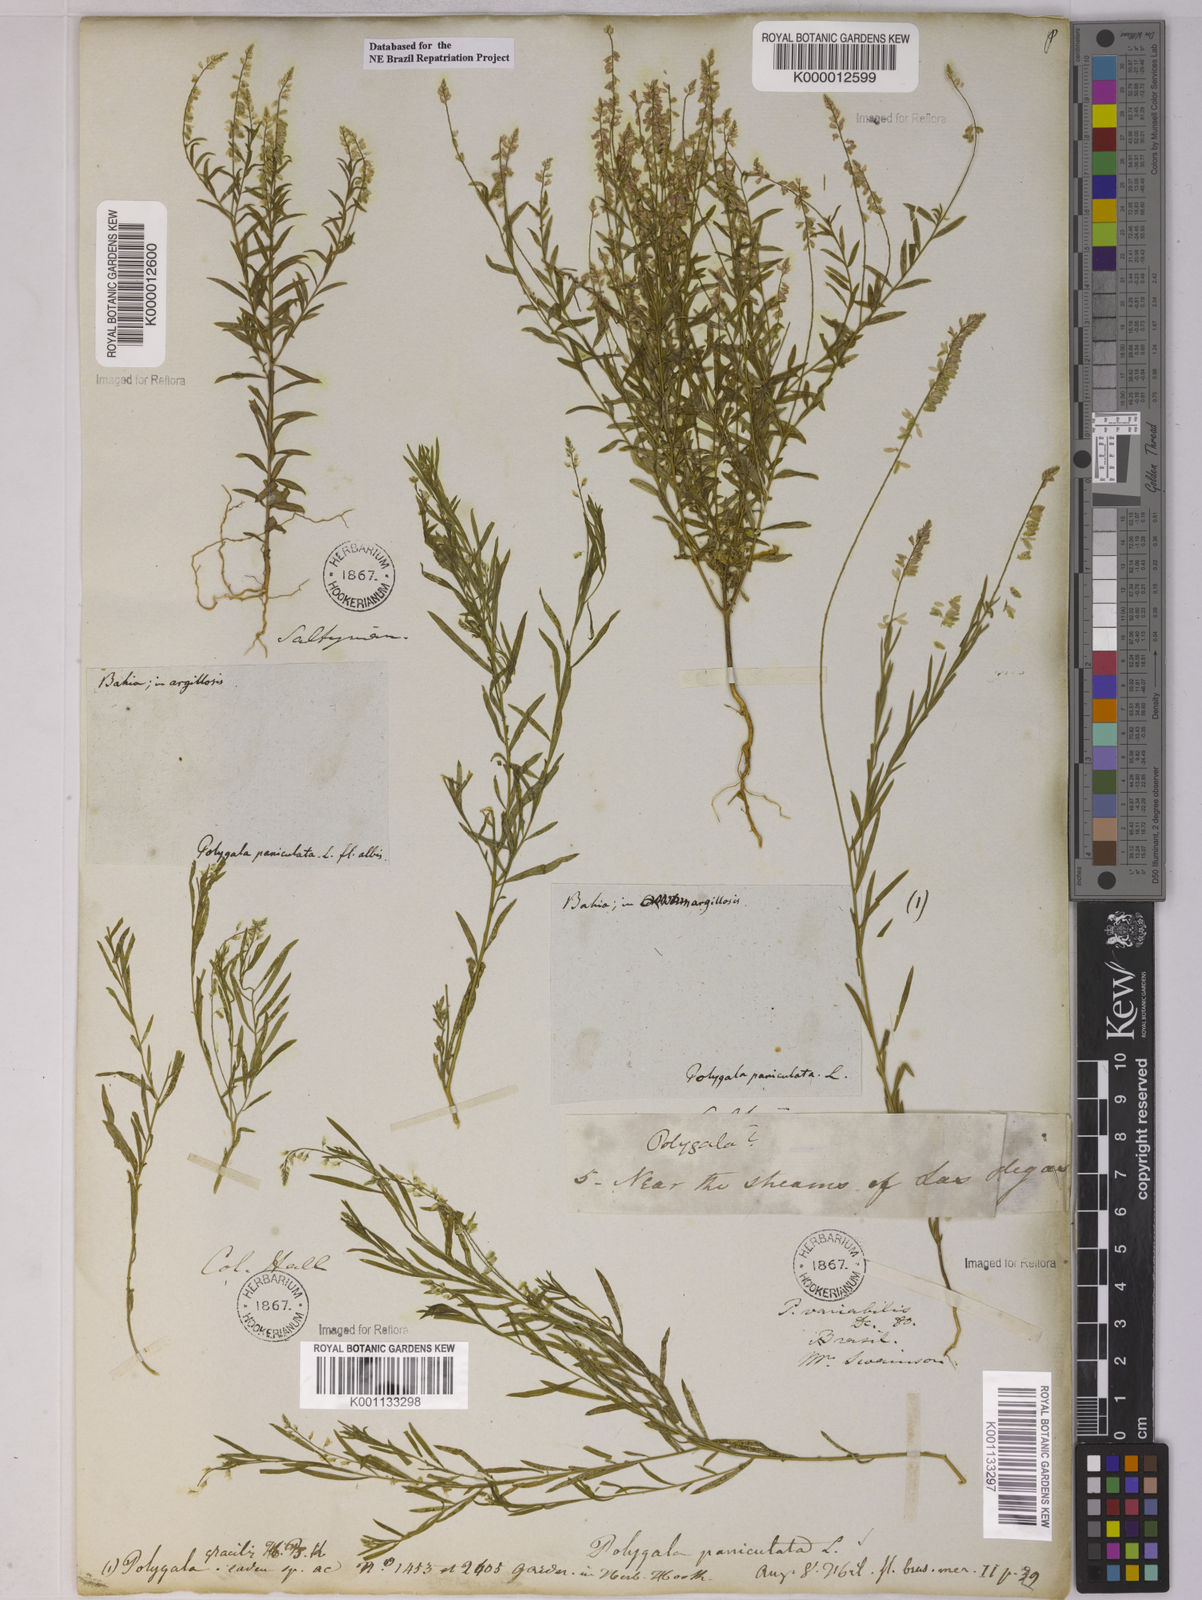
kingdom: Plantae
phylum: Tracheophyta
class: Magnoliopsida
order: Fabales
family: Polygalaceae
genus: Polygala
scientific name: Polygala paniculata
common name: Orosne
